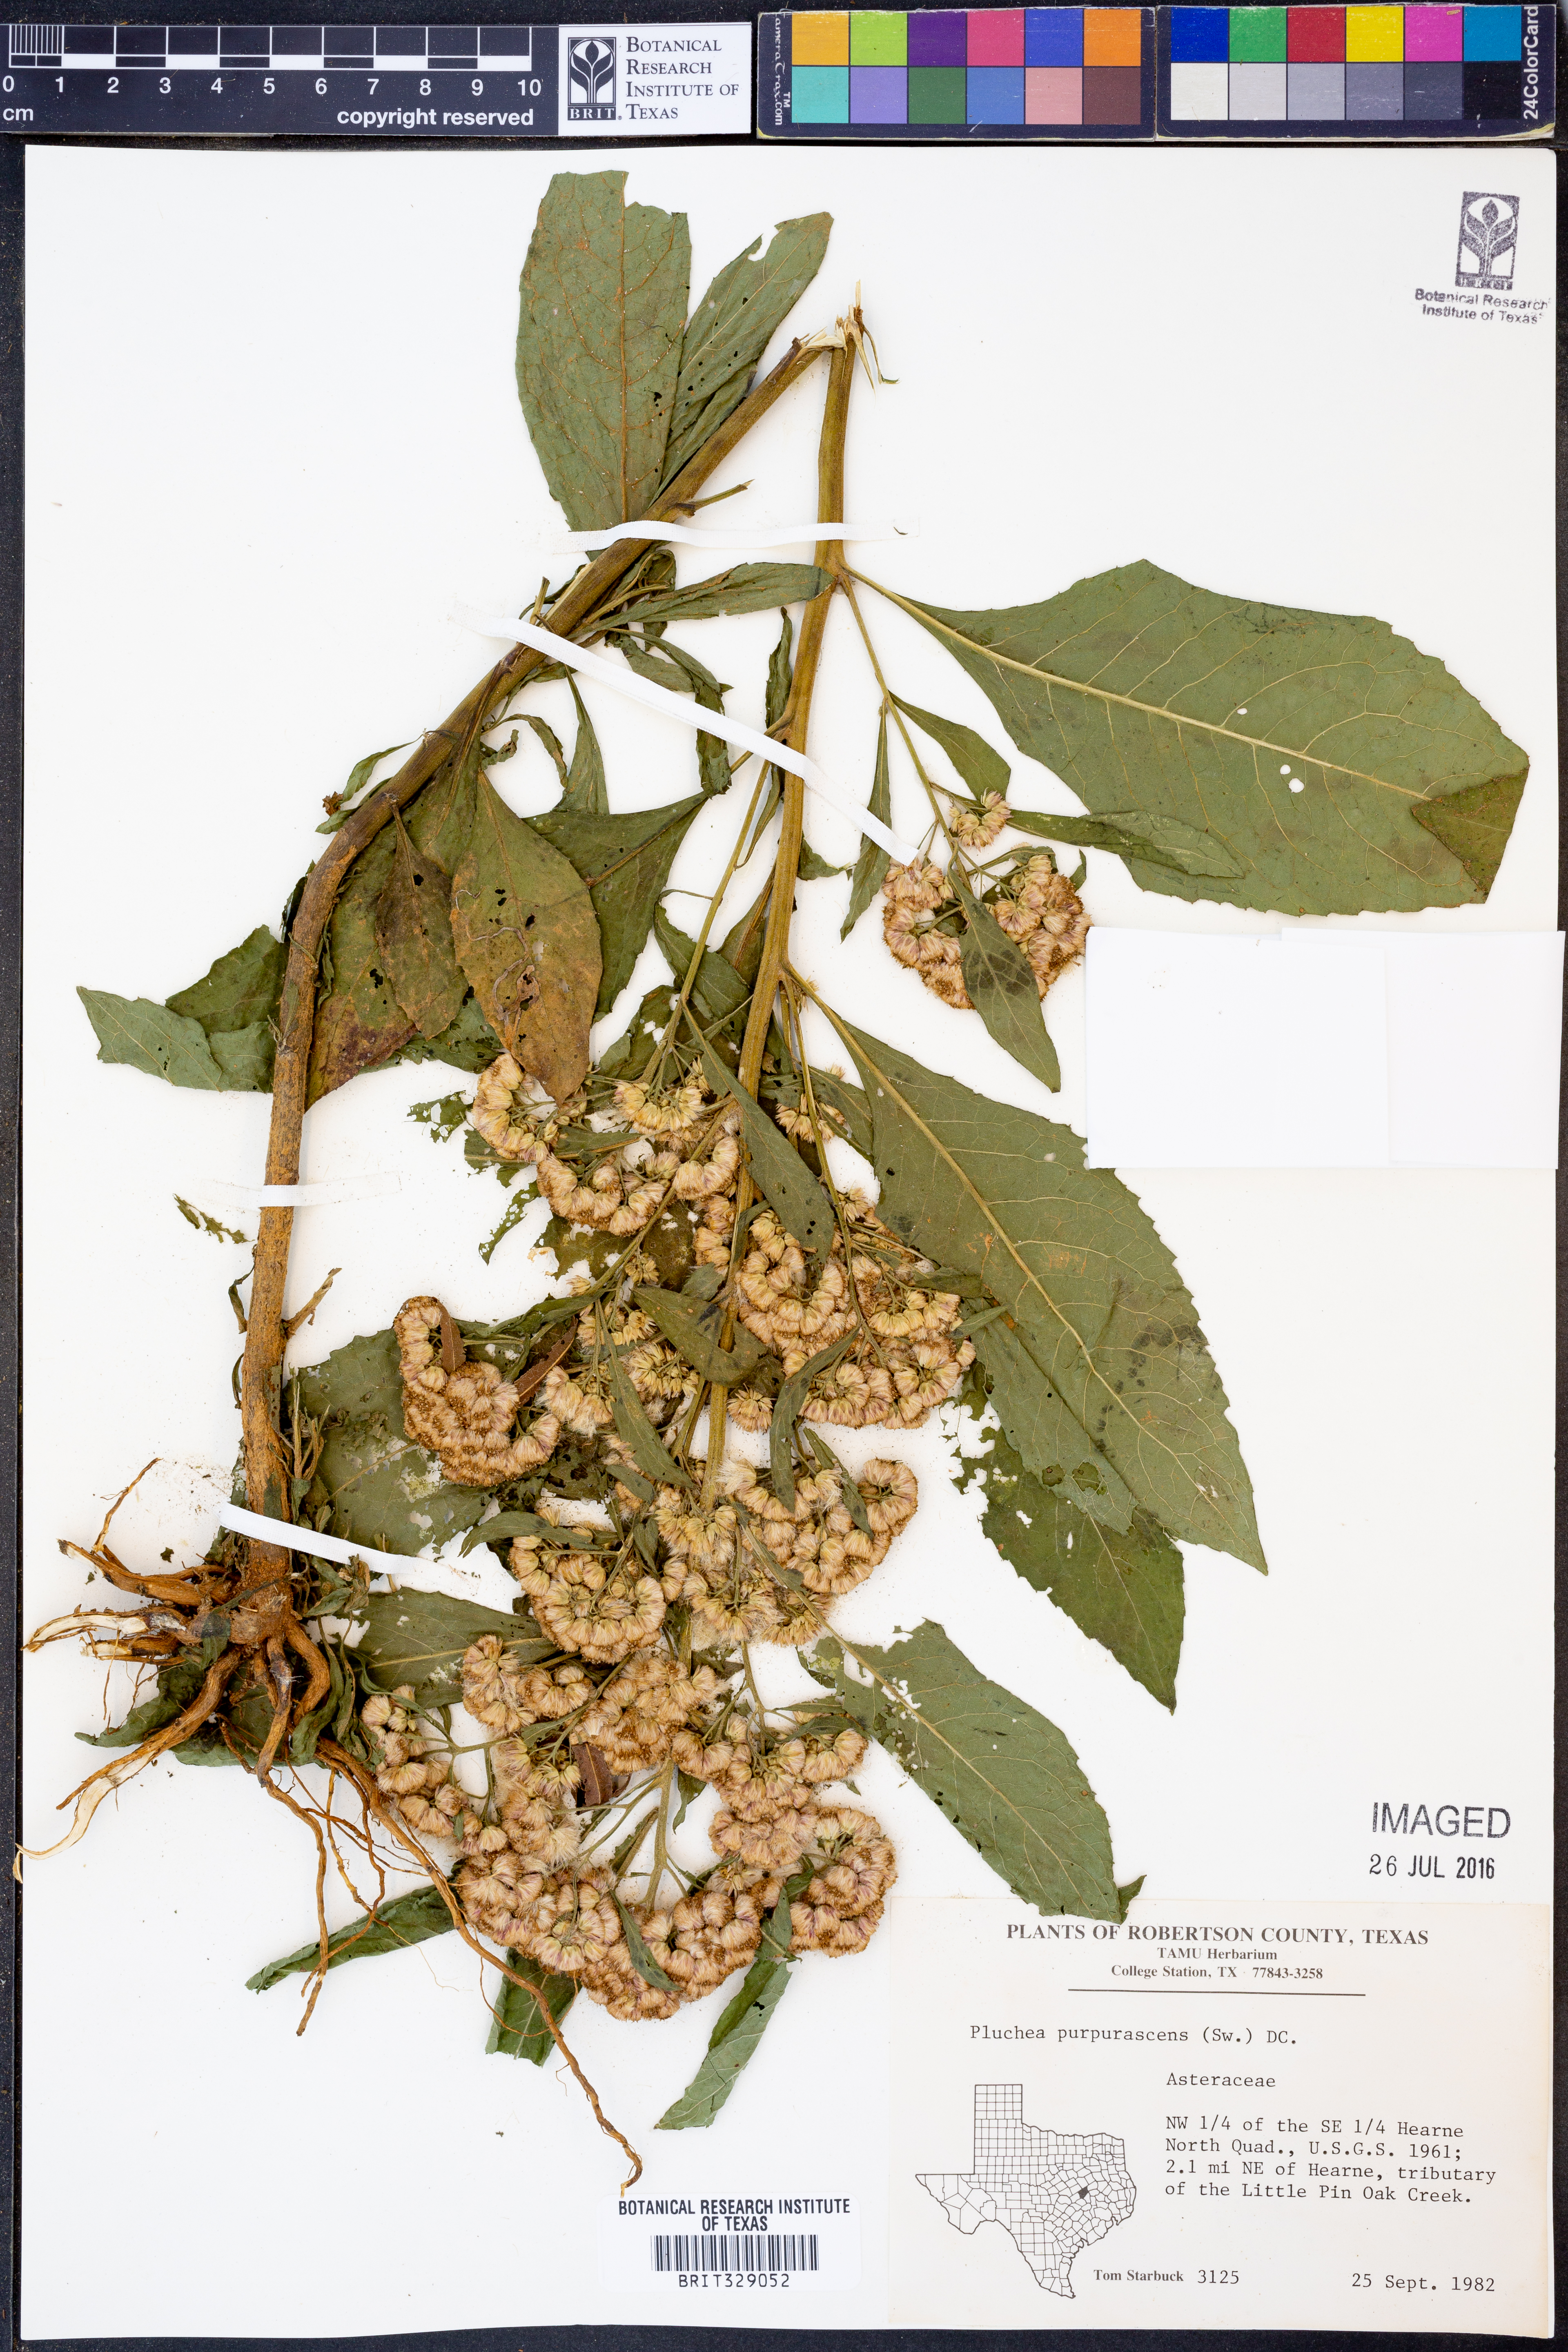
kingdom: Plantae
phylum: Tracheophyta
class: Magnoliopsida
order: Asterales
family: Asteraceae
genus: Pluchea
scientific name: Pluchea odorata
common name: Saltmarsh fleabane
